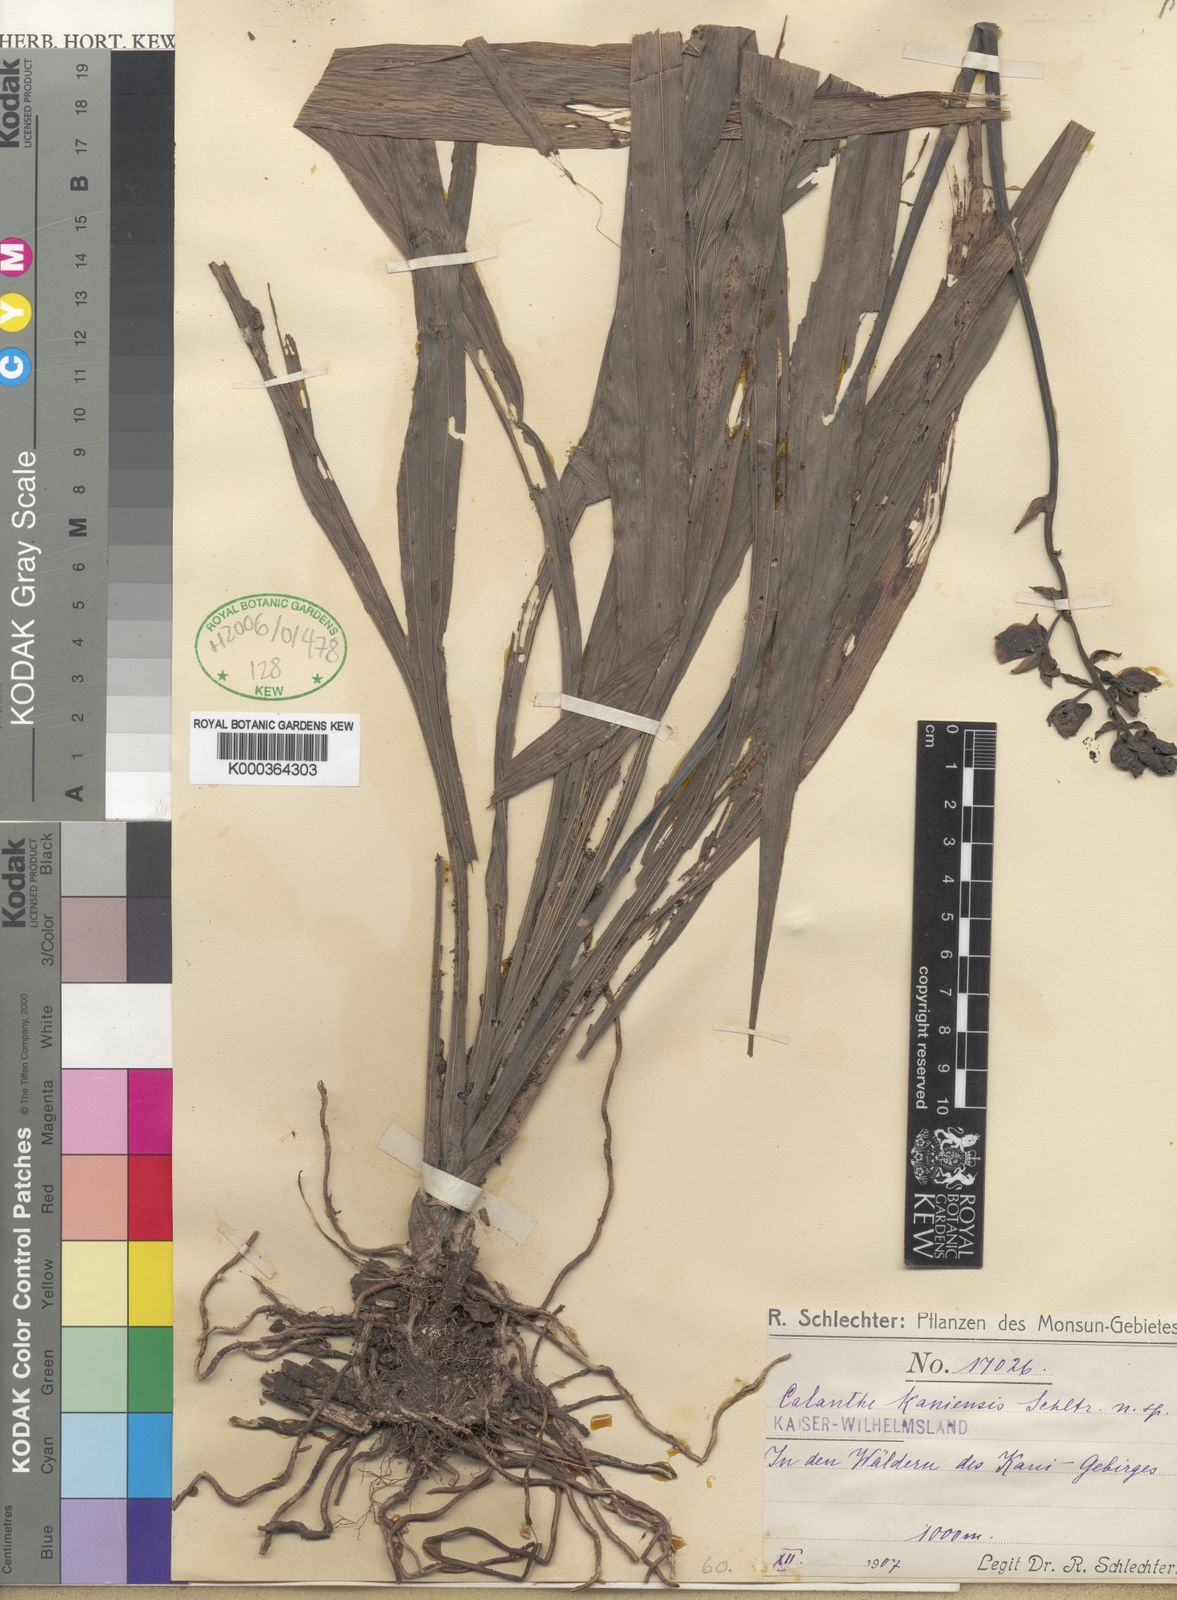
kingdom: Plantae
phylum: Tracheophyta
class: Liliopsida
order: Asparagales
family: Orchidaceae
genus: Calanthe
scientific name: Calanthe kaniensis
